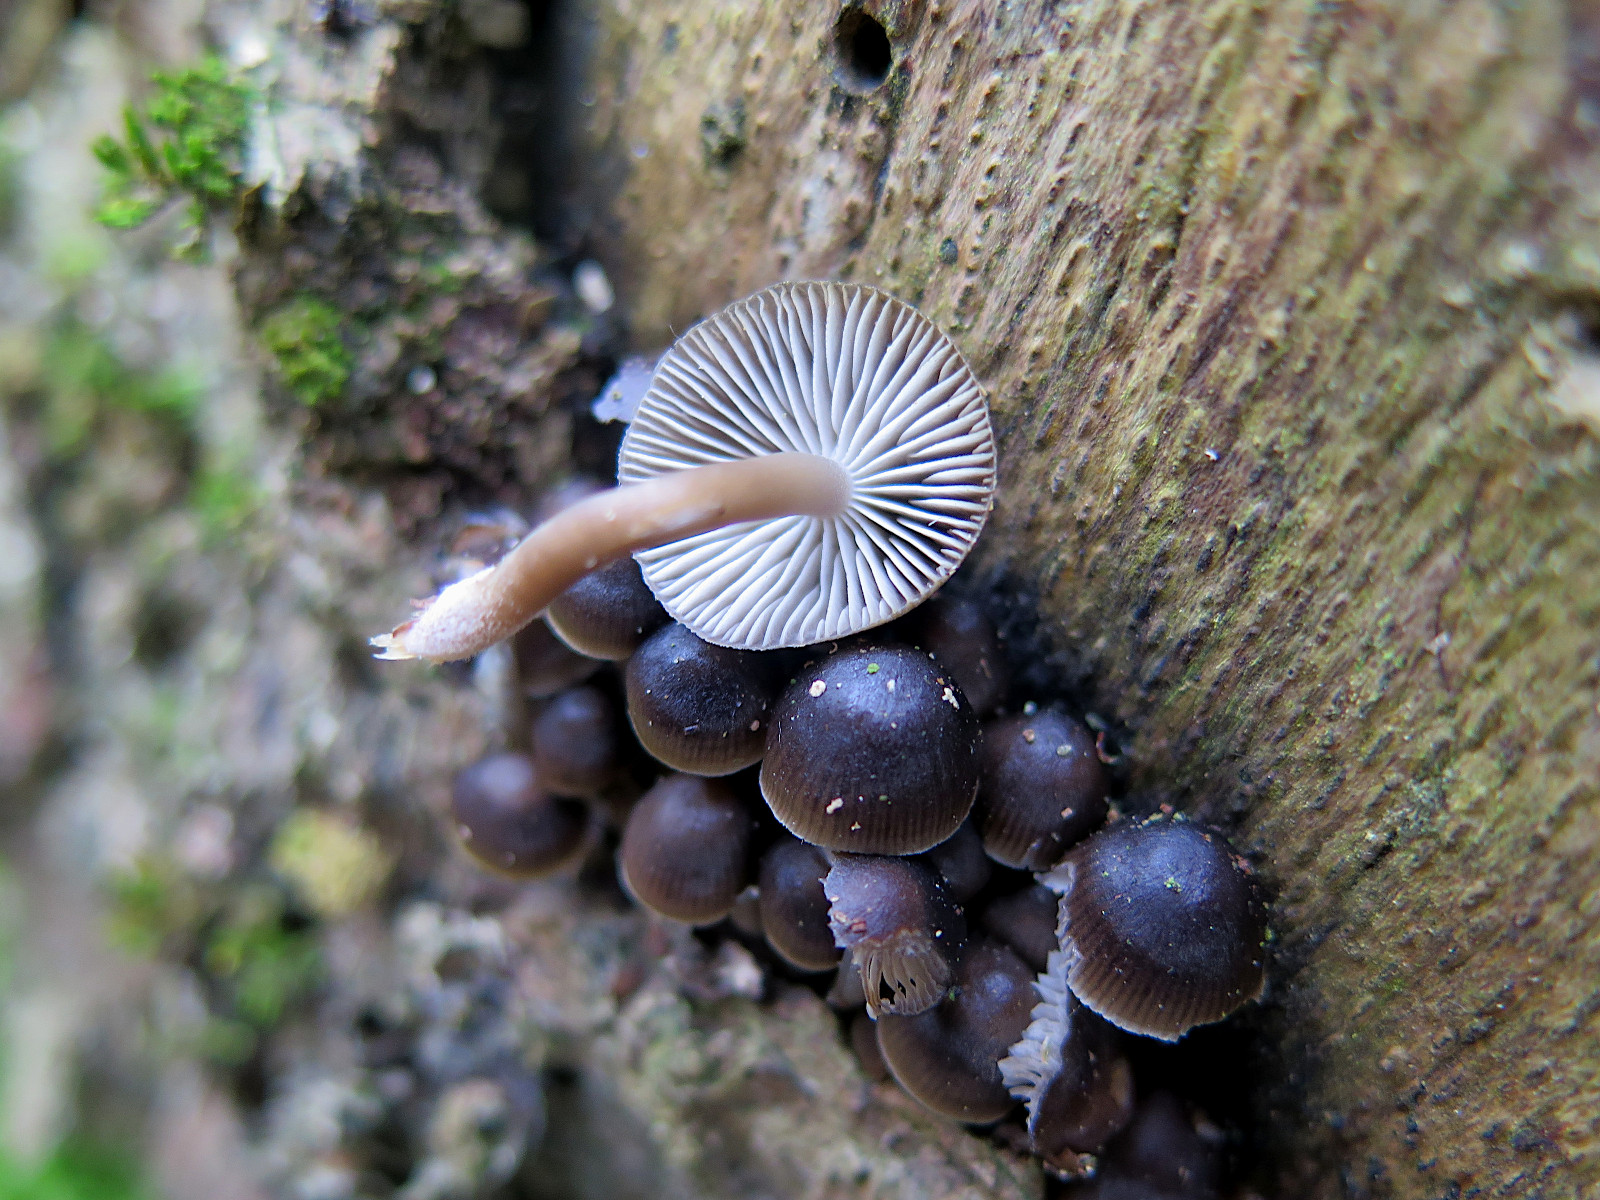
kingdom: Fungi
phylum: Basidiomycota
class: Agaricomycetes
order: Agaricales
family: Mycenaceae
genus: Mycena
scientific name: Mycena tintinnabulum
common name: vinter-huesvamp
